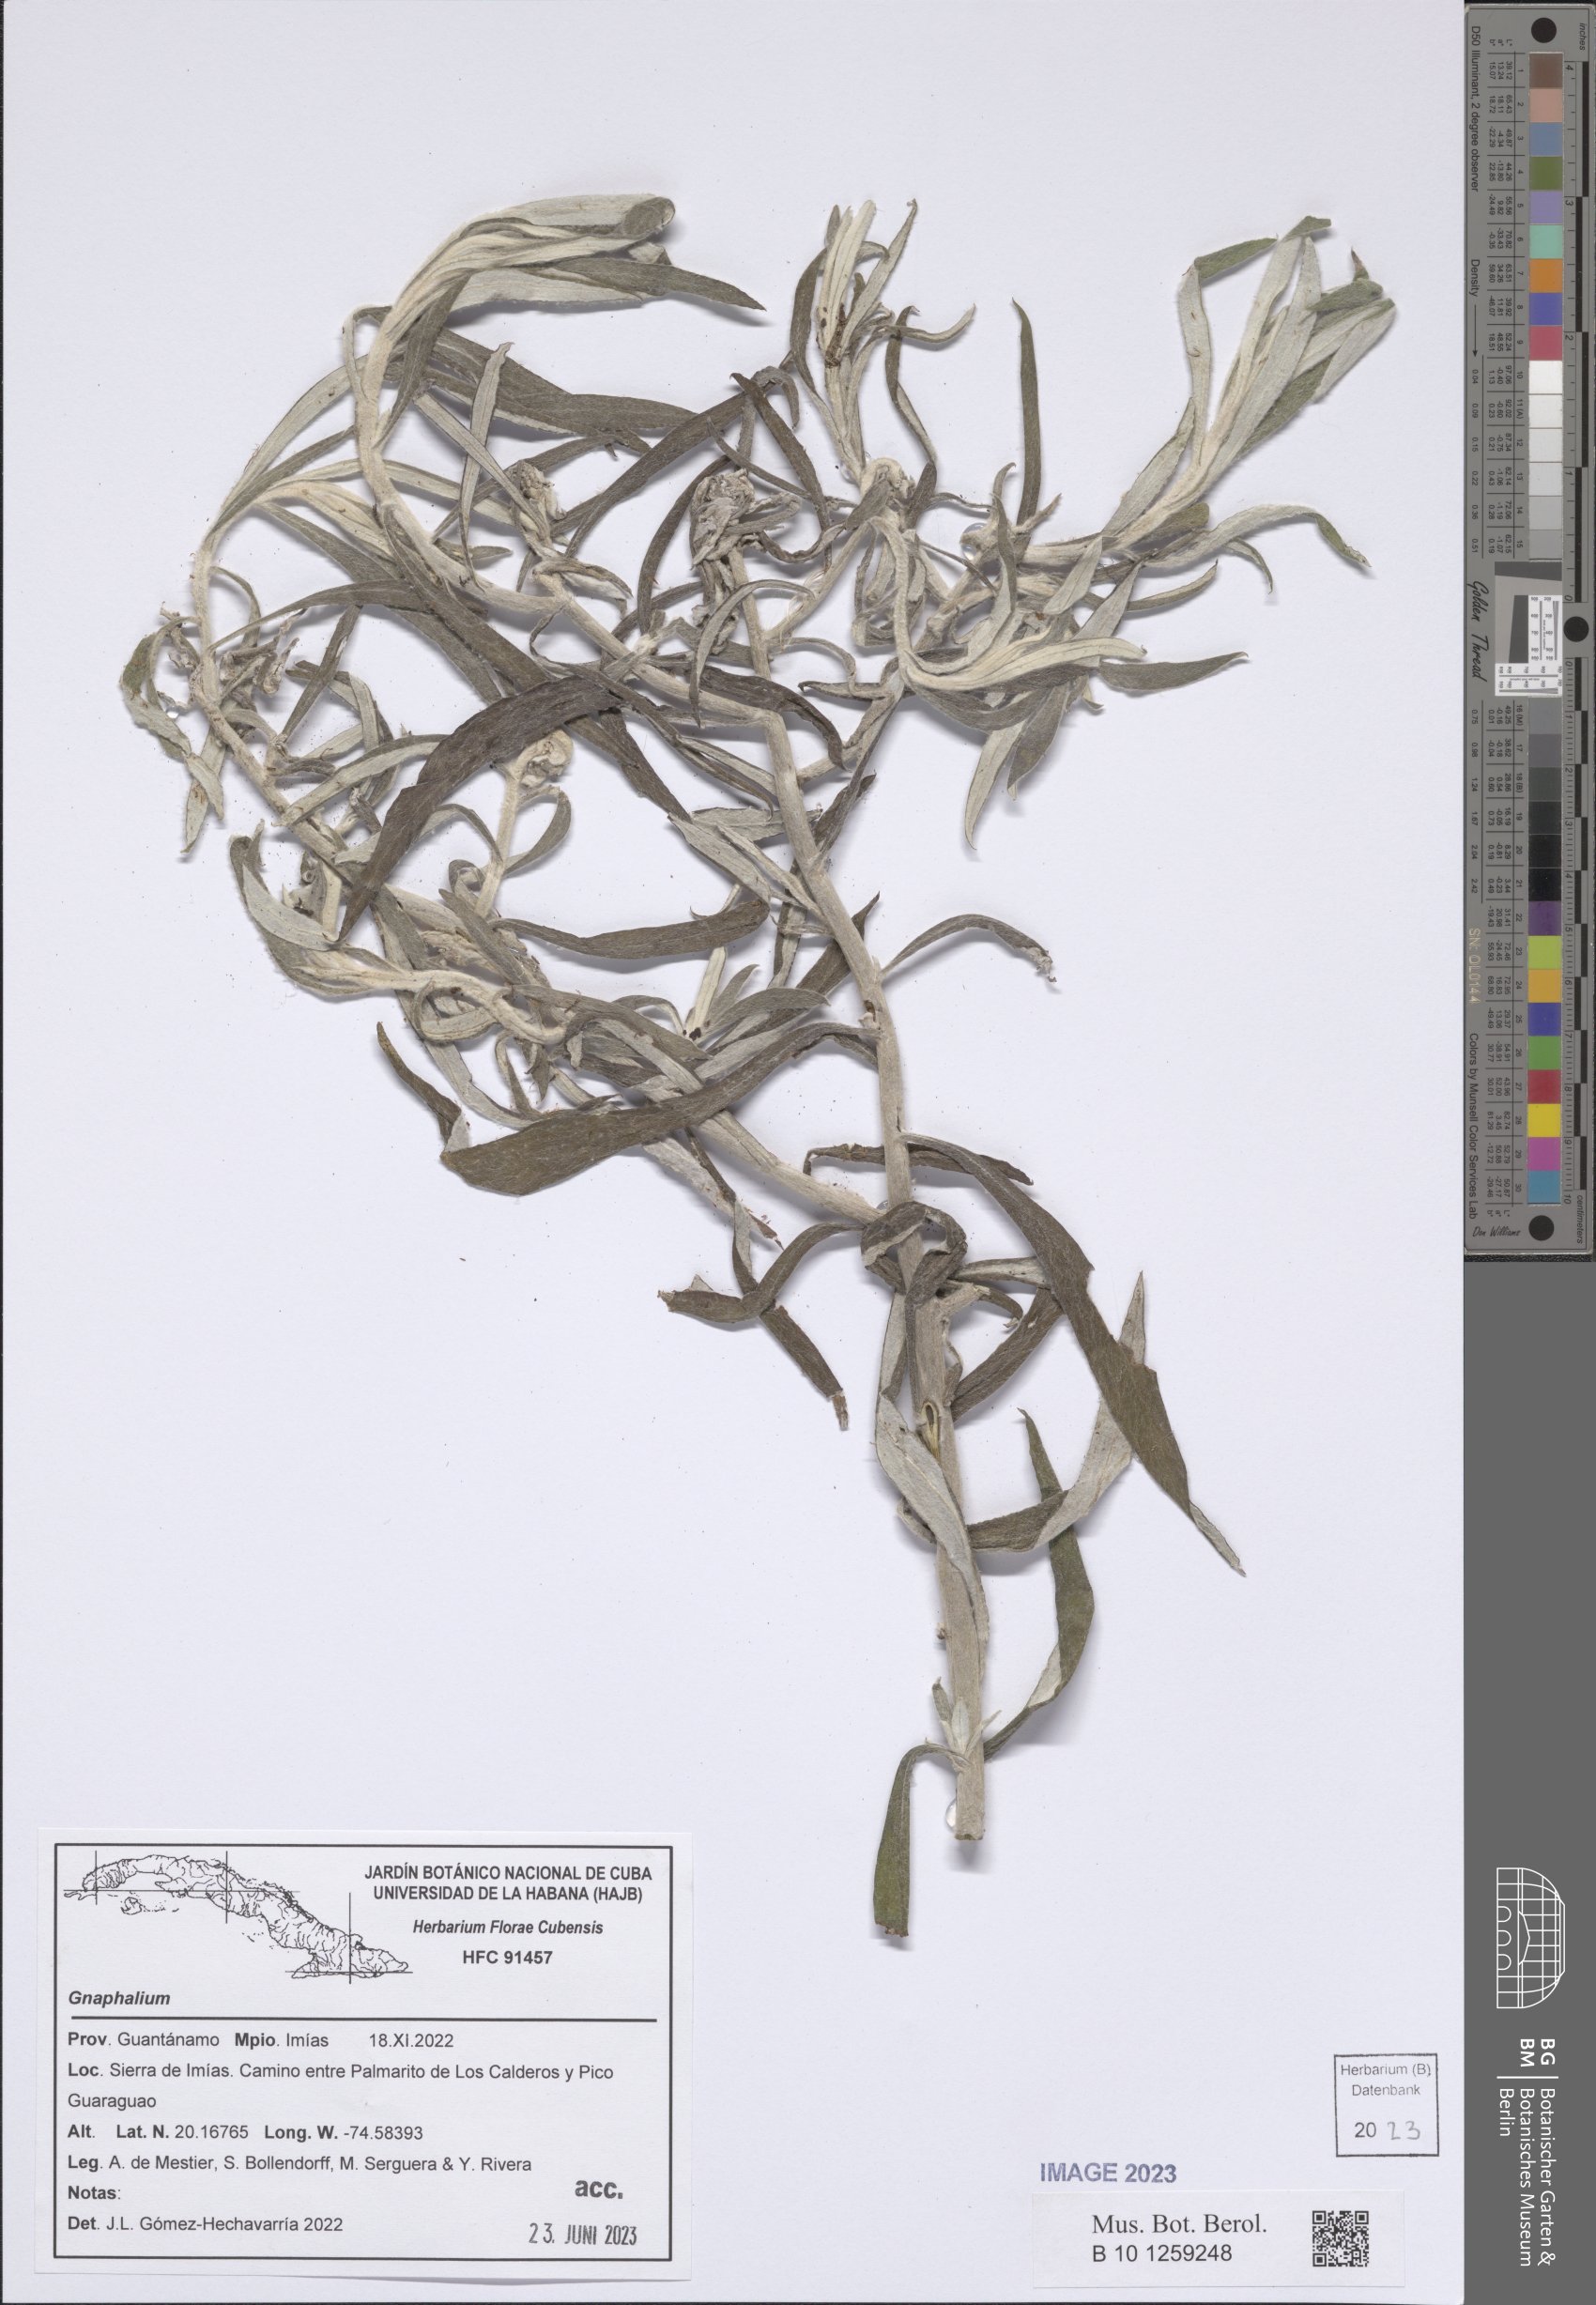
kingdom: Plantae
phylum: Tracheophyta
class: Magnoliopsida
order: Asterales
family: Asteraceae
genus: Gnaphalium
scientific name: Gnaphalium
